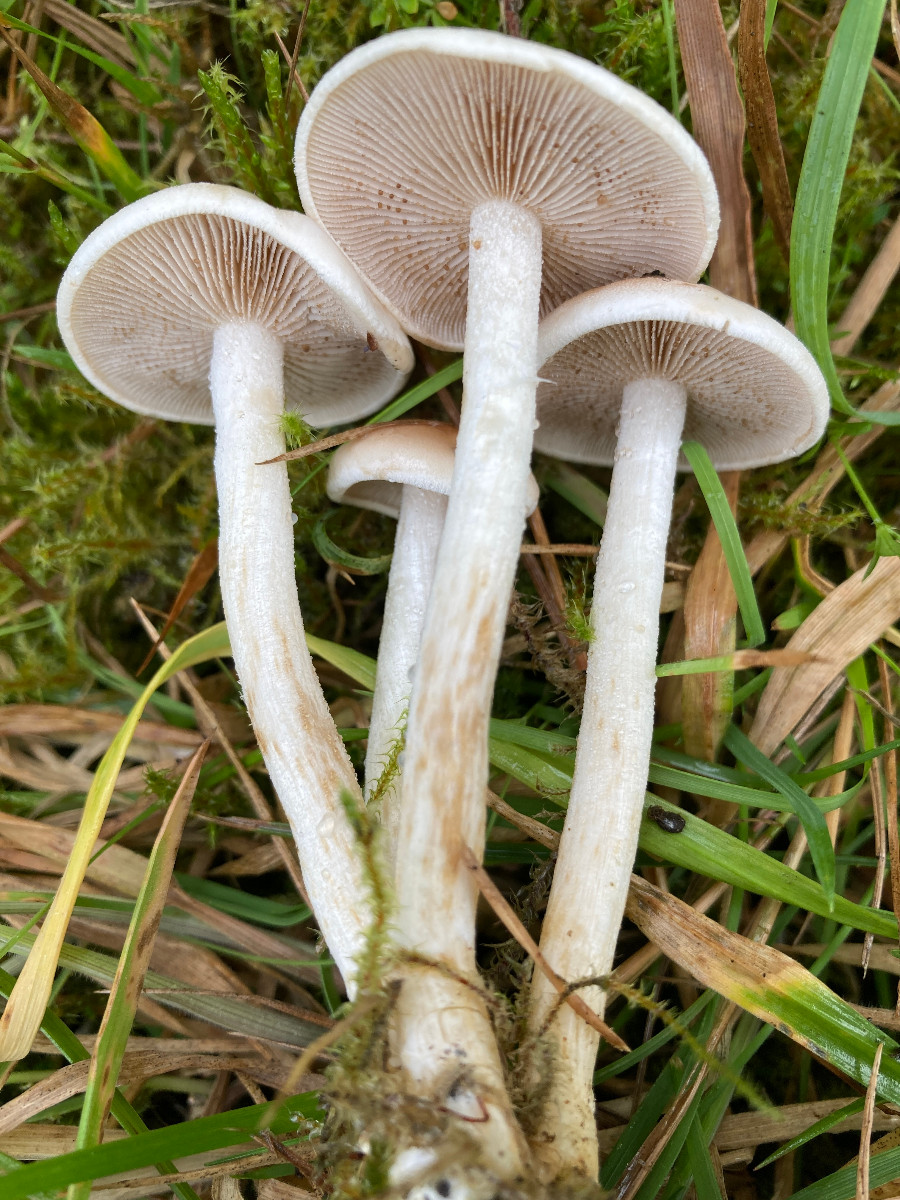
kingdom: Fungi
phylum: Basidiomycota
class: Agaricomycetes
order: Agaricales
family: Hymenogastraceae
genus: Hebeloma
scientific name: Hebeloma
